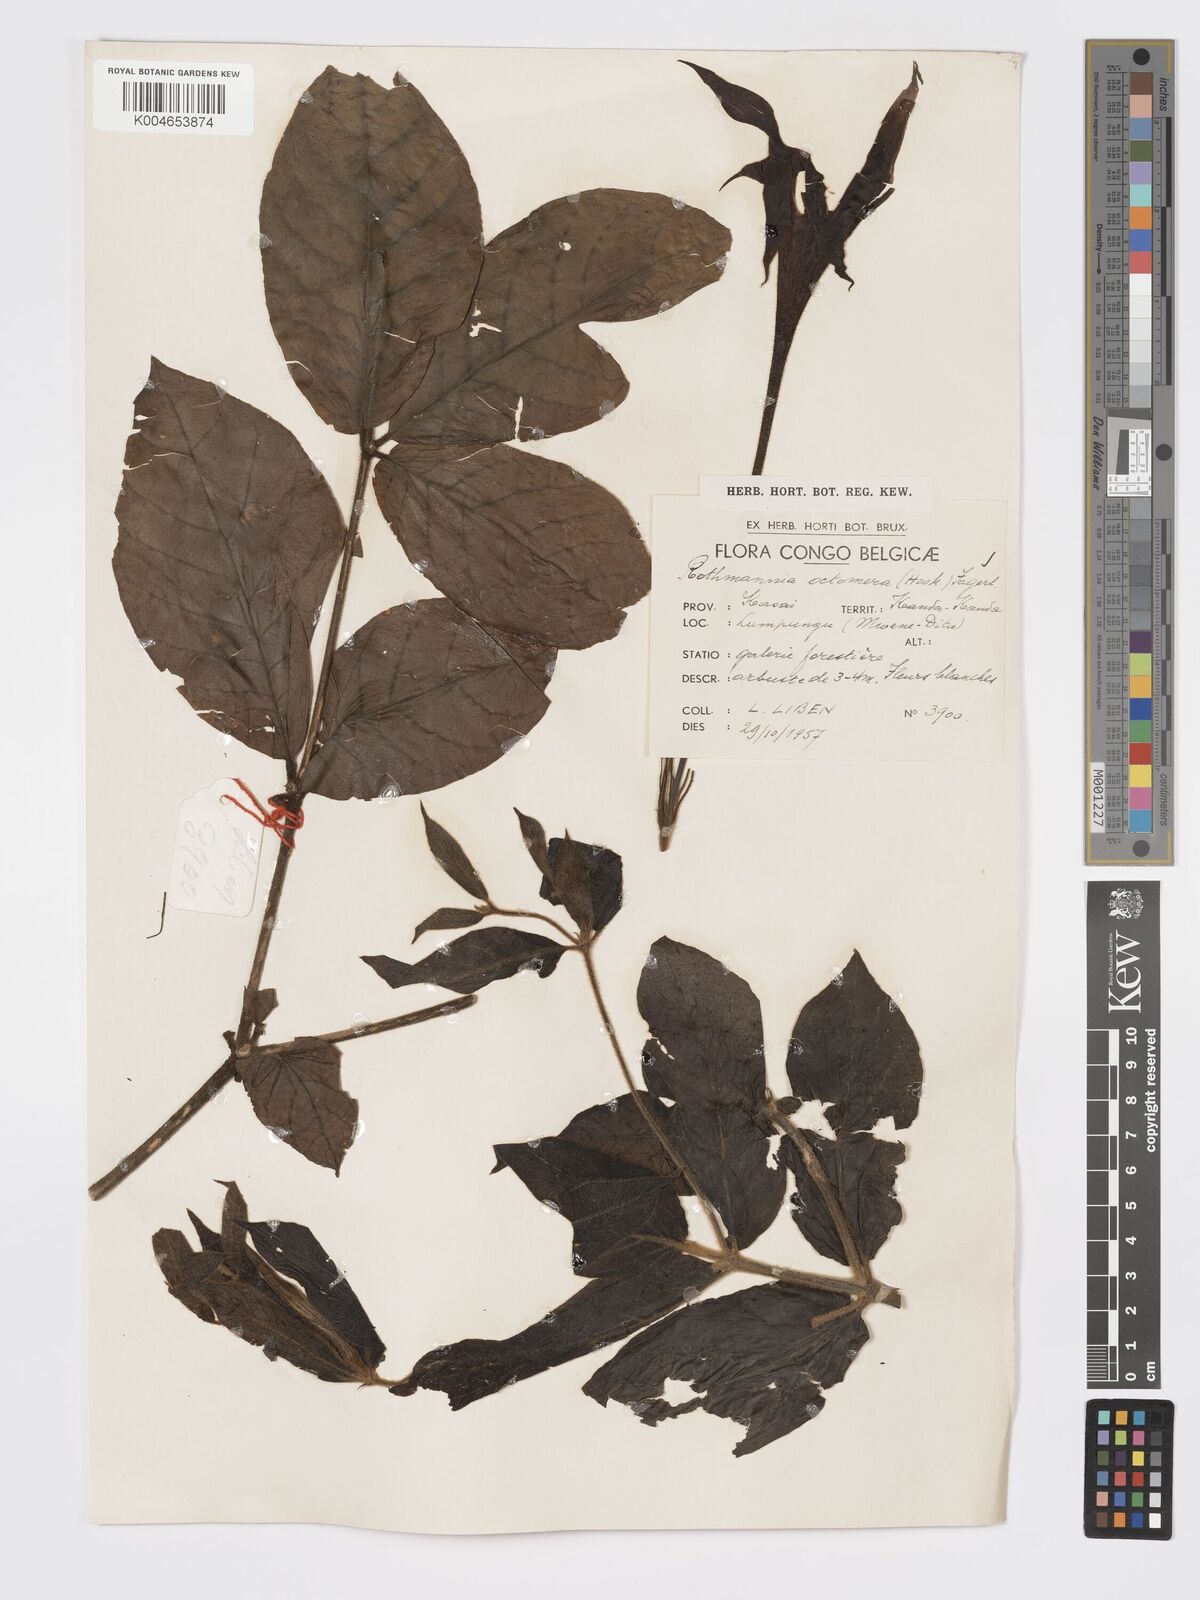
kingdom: Plantae
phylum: Tracheophyta
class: Magnoliopsida
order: Gentianales
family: Rubiaceae
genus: Rothmannia
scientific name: Rothmannia octomera
